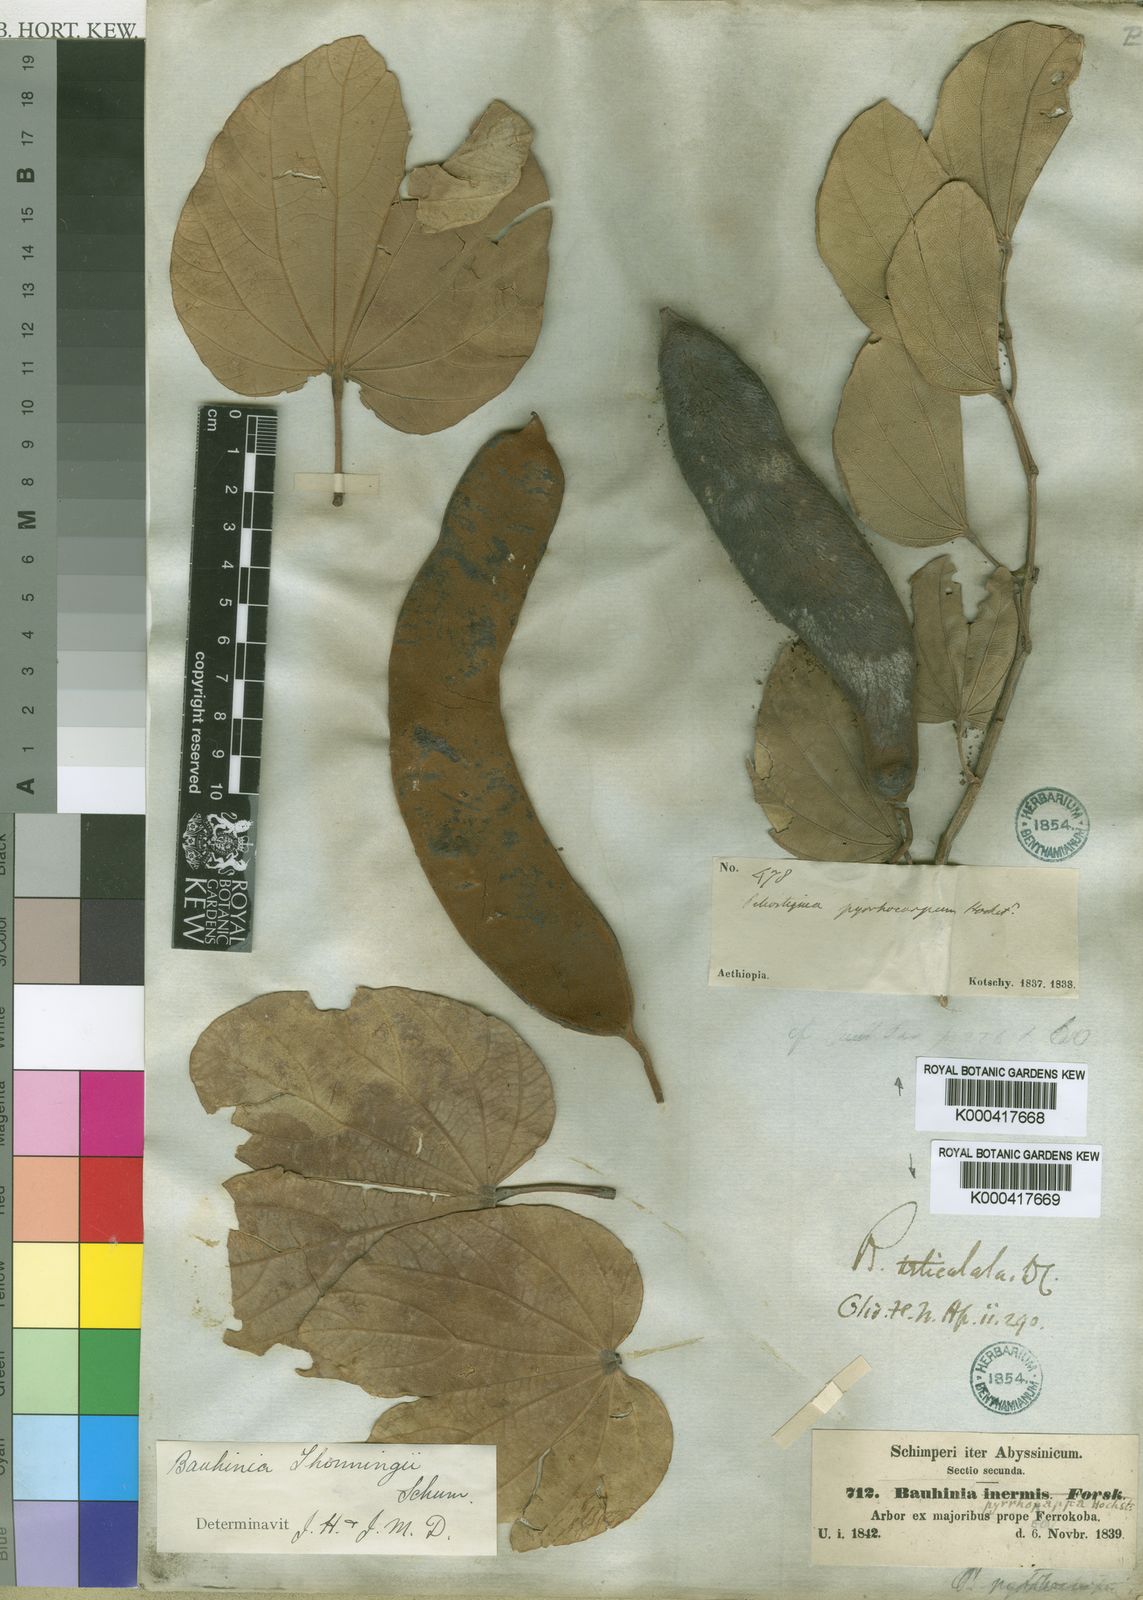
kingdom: Plantae
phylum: Tracheophyta
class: Magnoliopsida
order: Fabales
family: Fabaceae
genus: Piliostigma
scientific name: Piliostigma thonningii
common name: Kao
